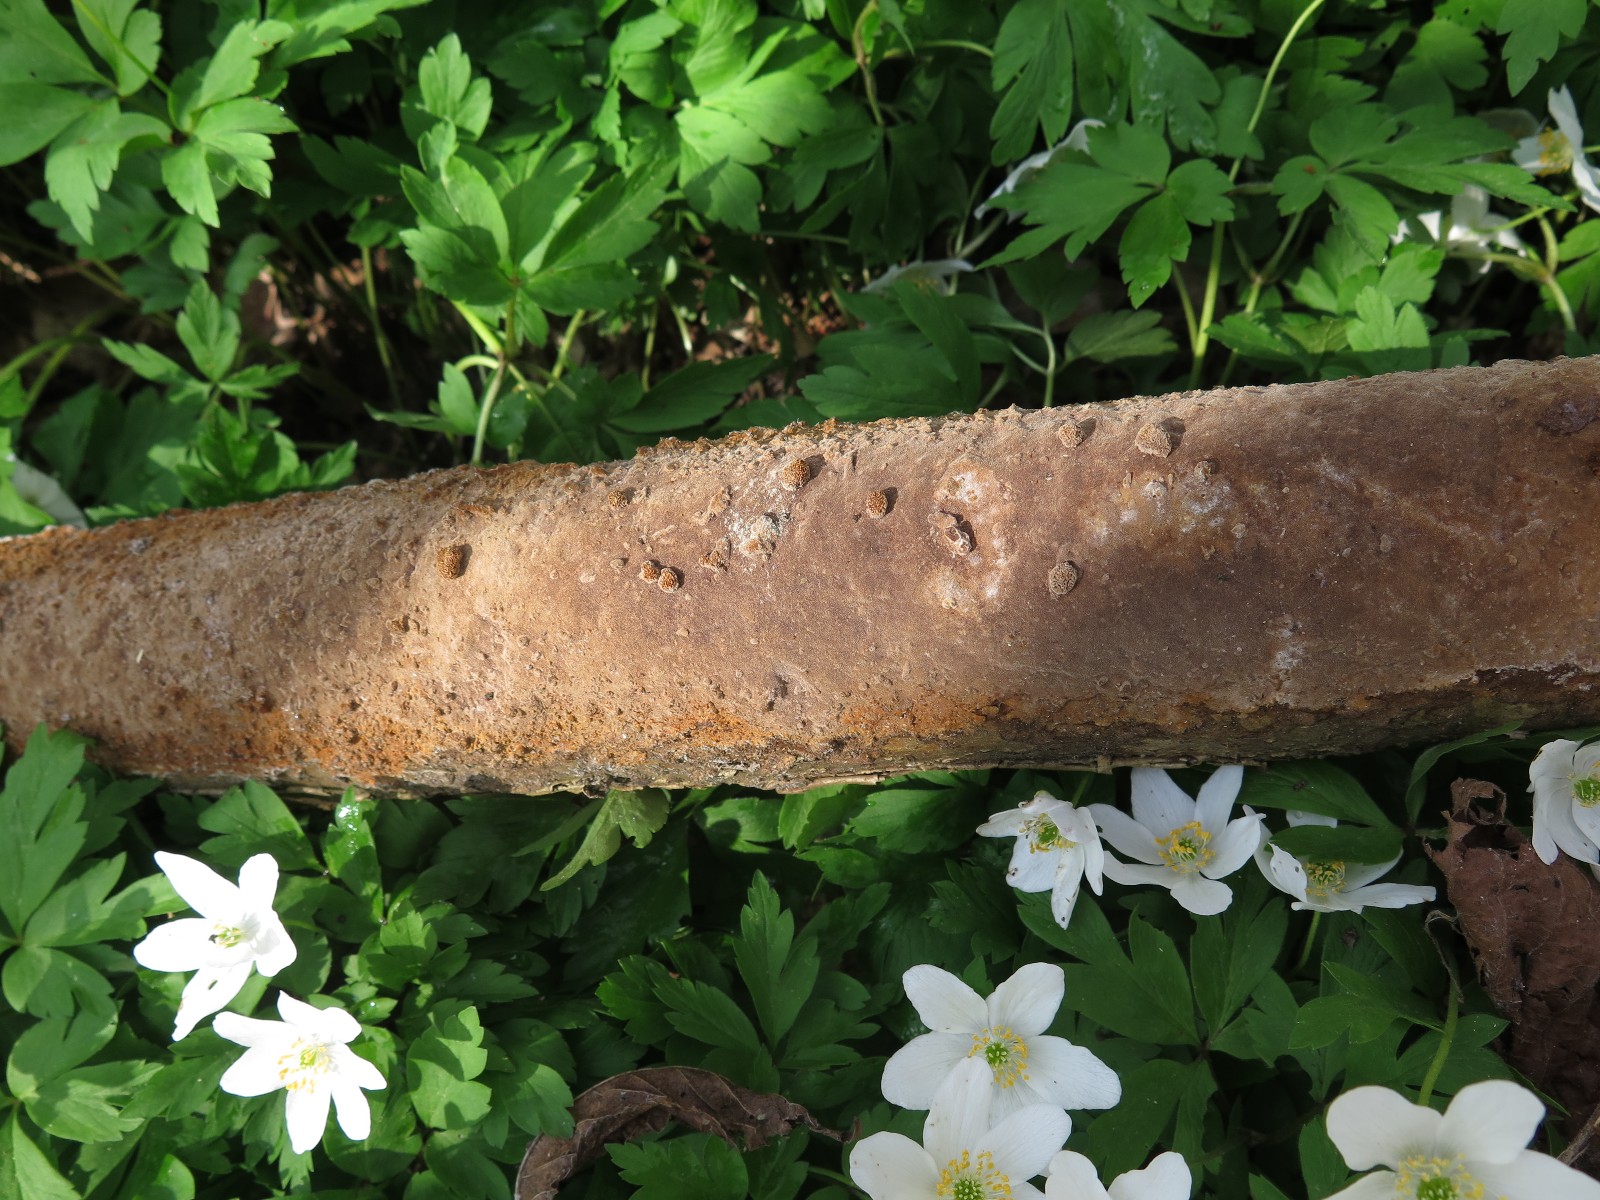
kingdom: Fungi
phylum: Basidiomycota
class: Agaricomycetes
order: Hymenochaetales
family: Hymenochaetaceae
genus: Fuscoporia
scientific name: Fuscoporia ferruginosa
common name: rustbrun ildporesvamp
